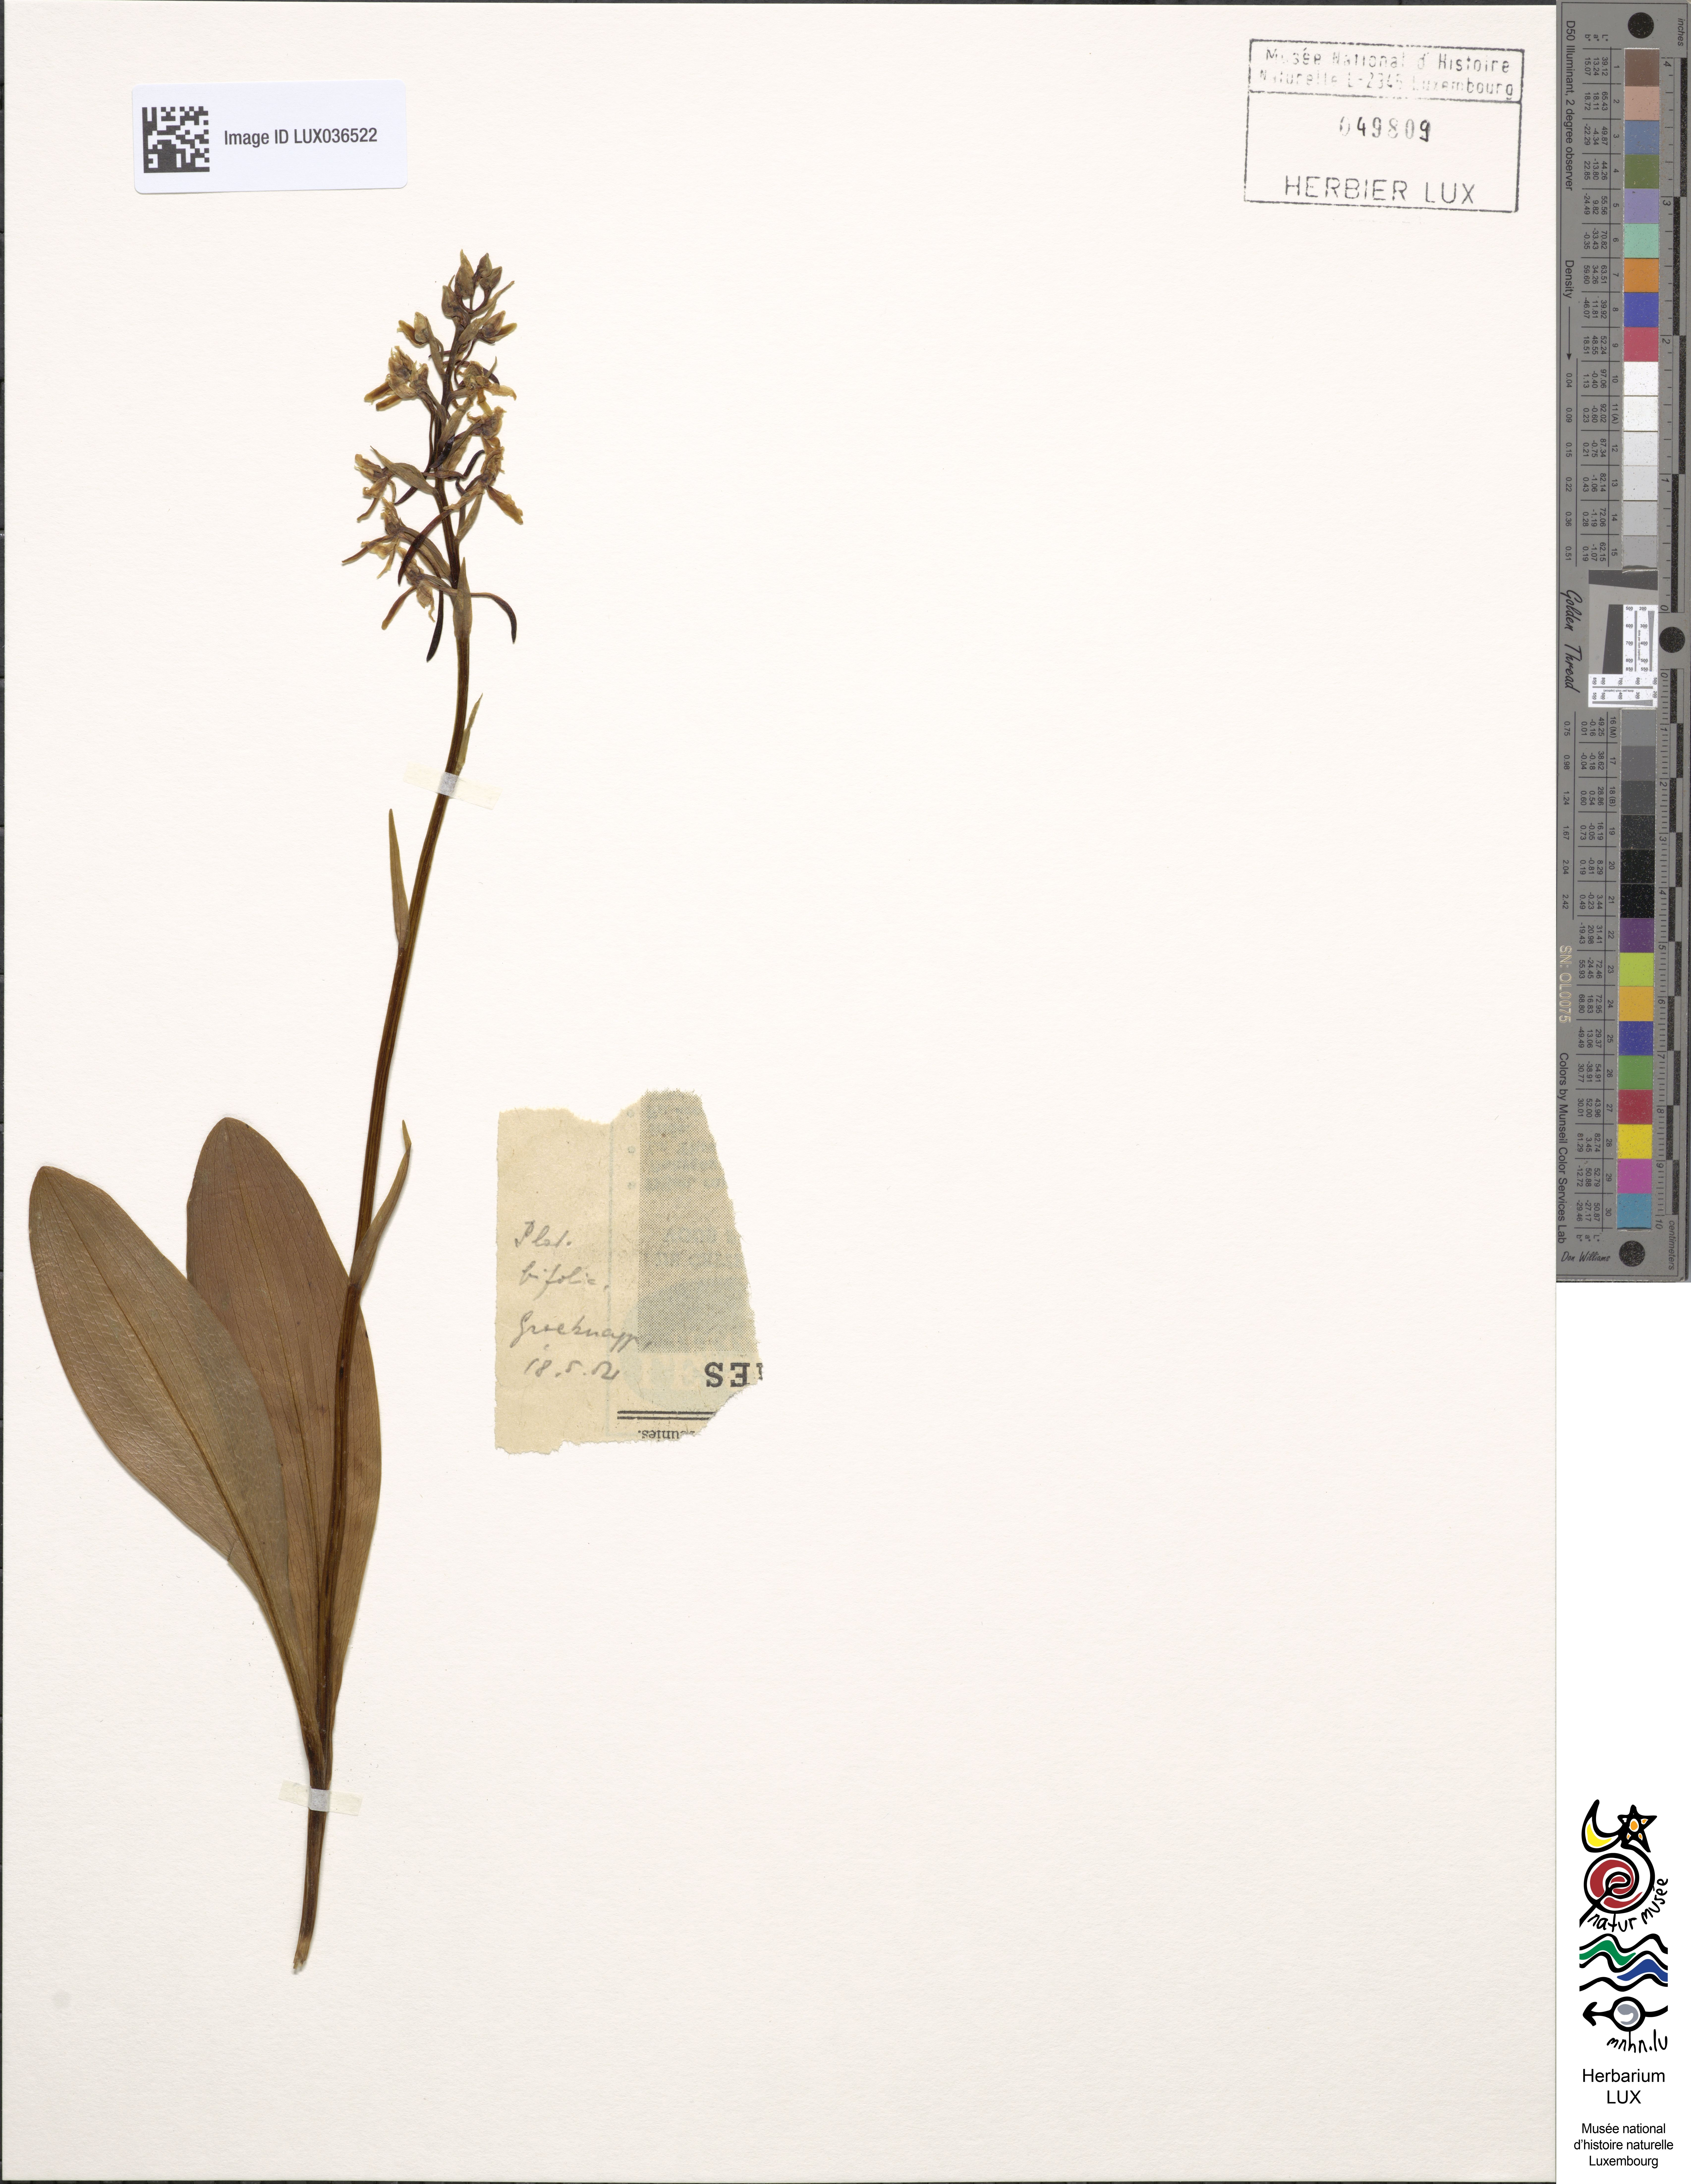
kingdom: Plantae
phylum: Tracheophyta
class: Liliopsida
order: Asparagales
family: Orchidaceae
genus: Platanthera
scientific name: Platanthera bifolia
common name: Lesser butterfly-orchid
